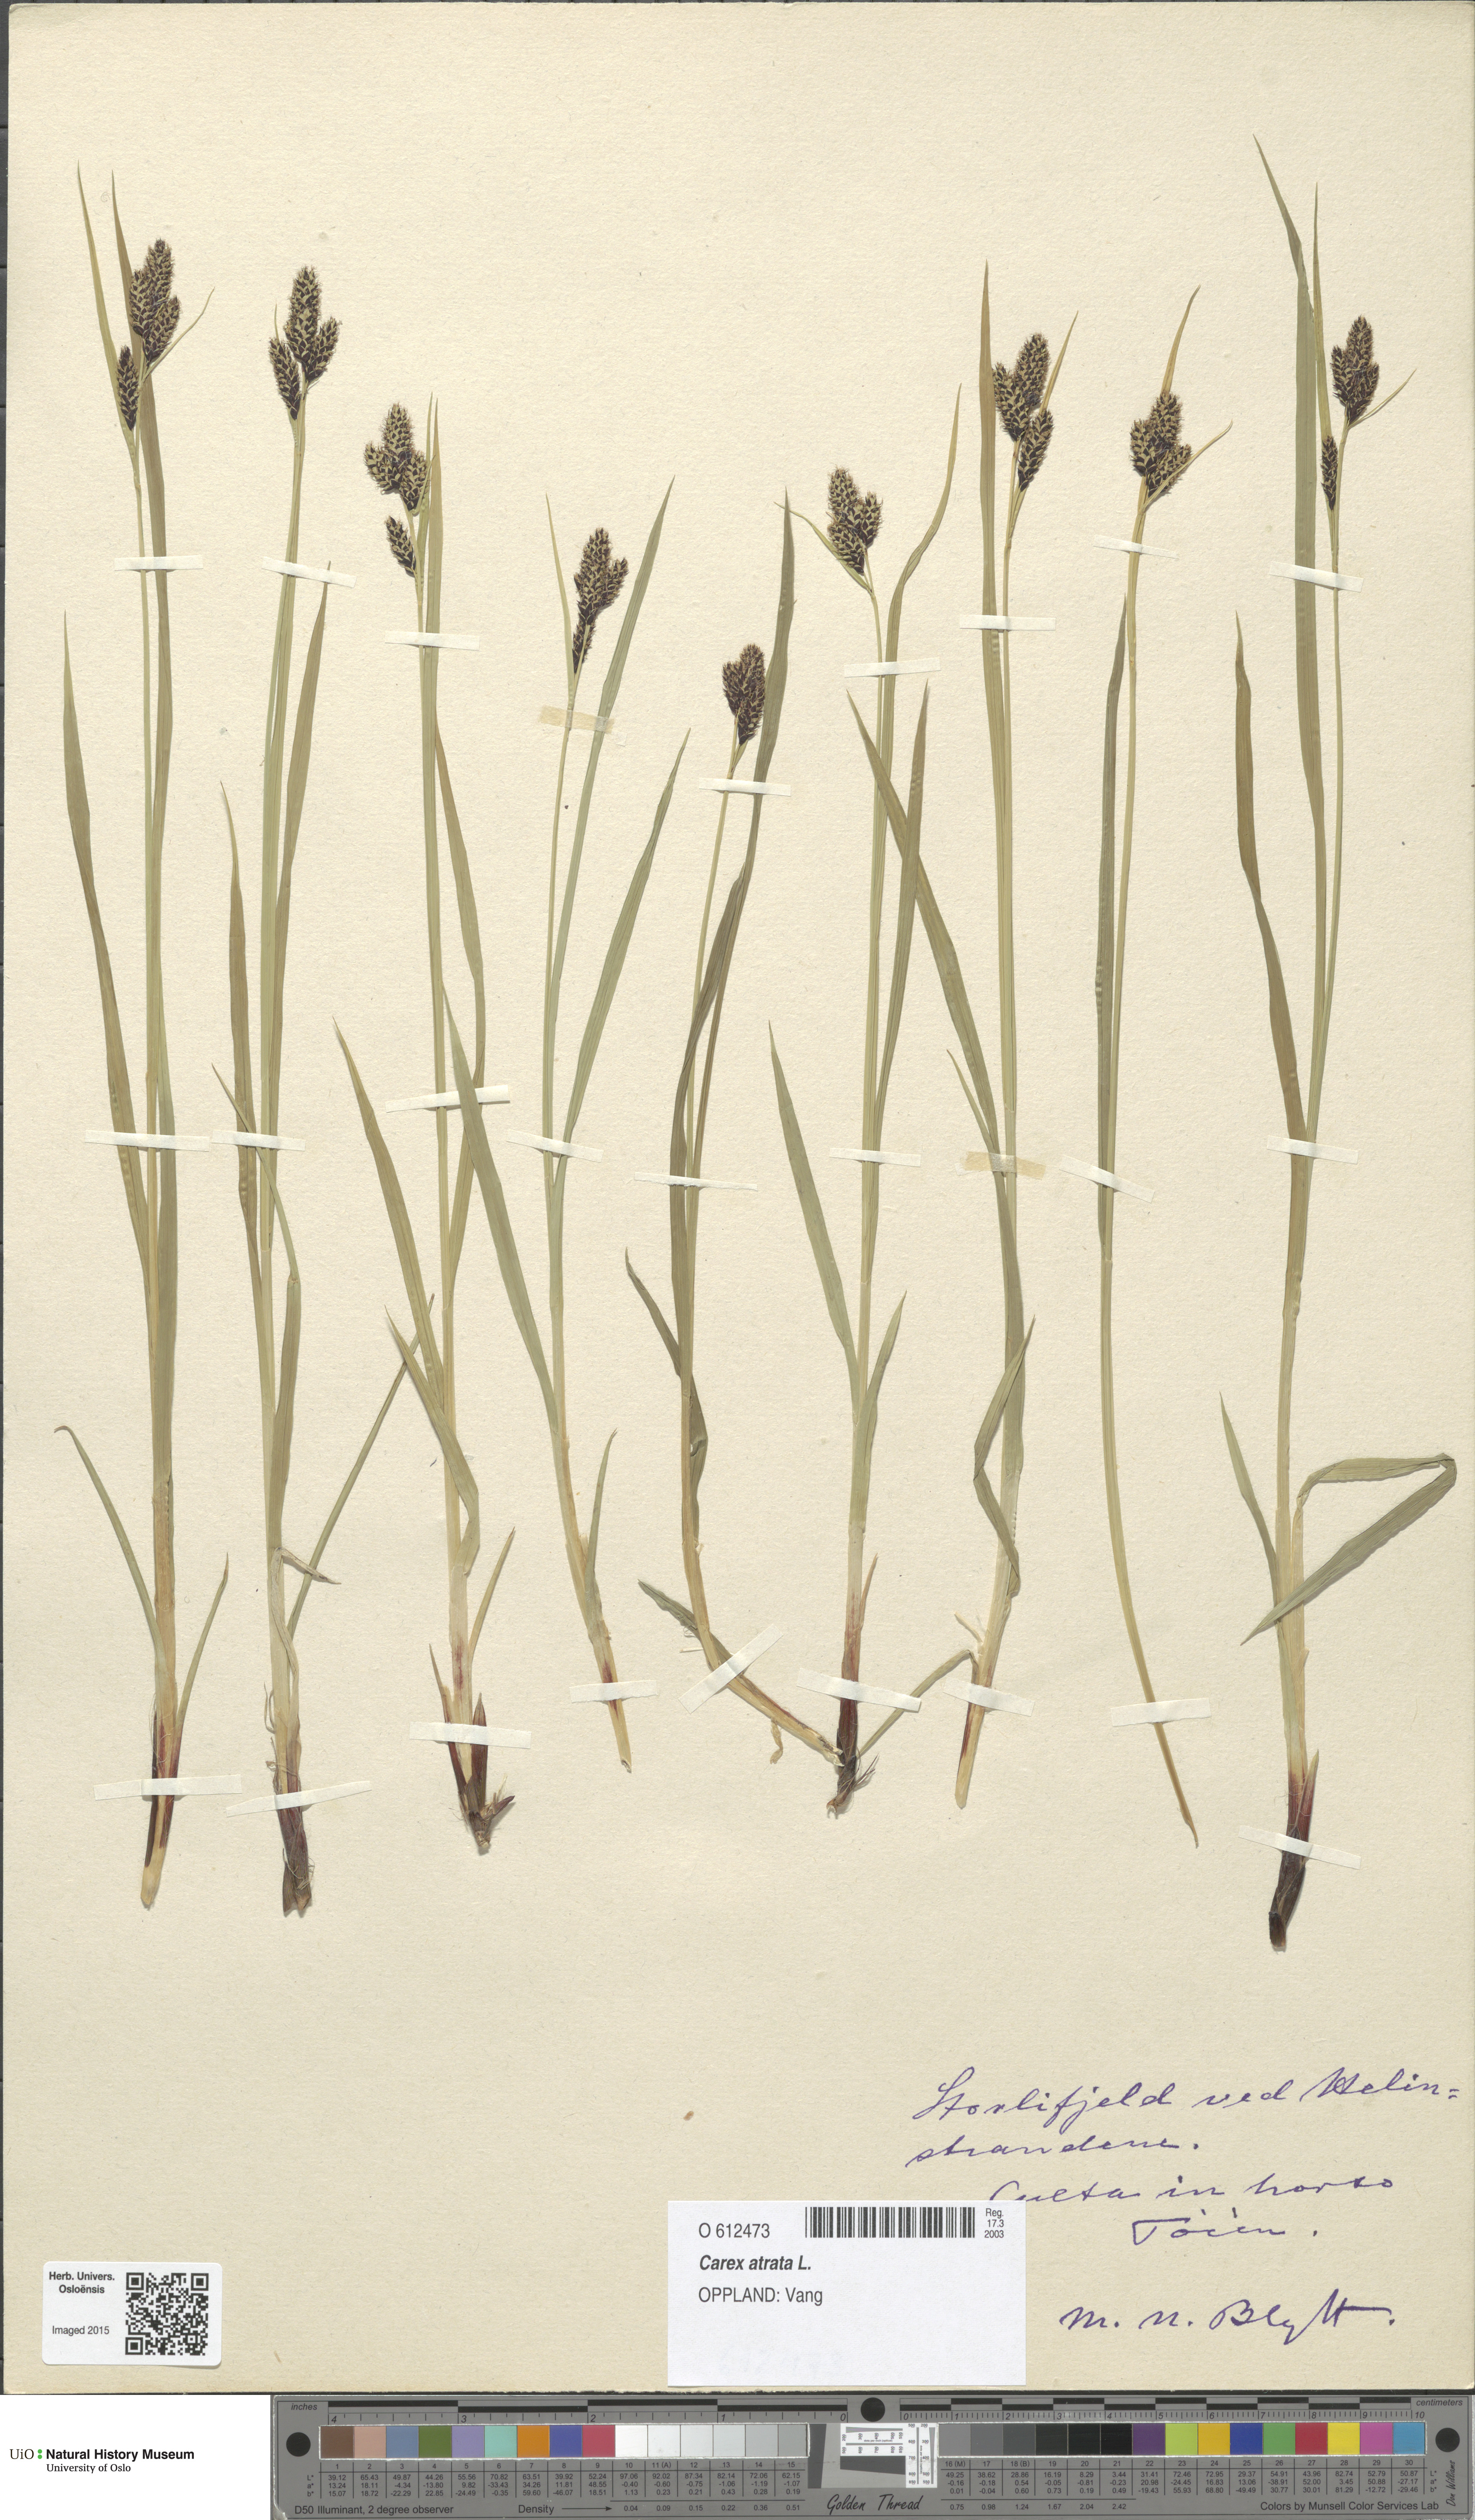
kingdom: Plantae
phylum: Tracheophyta
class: Liliopsida
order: Poales
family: Cyperaceae
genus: Carex
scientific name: Carex atrata
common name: Black alpine sedge
